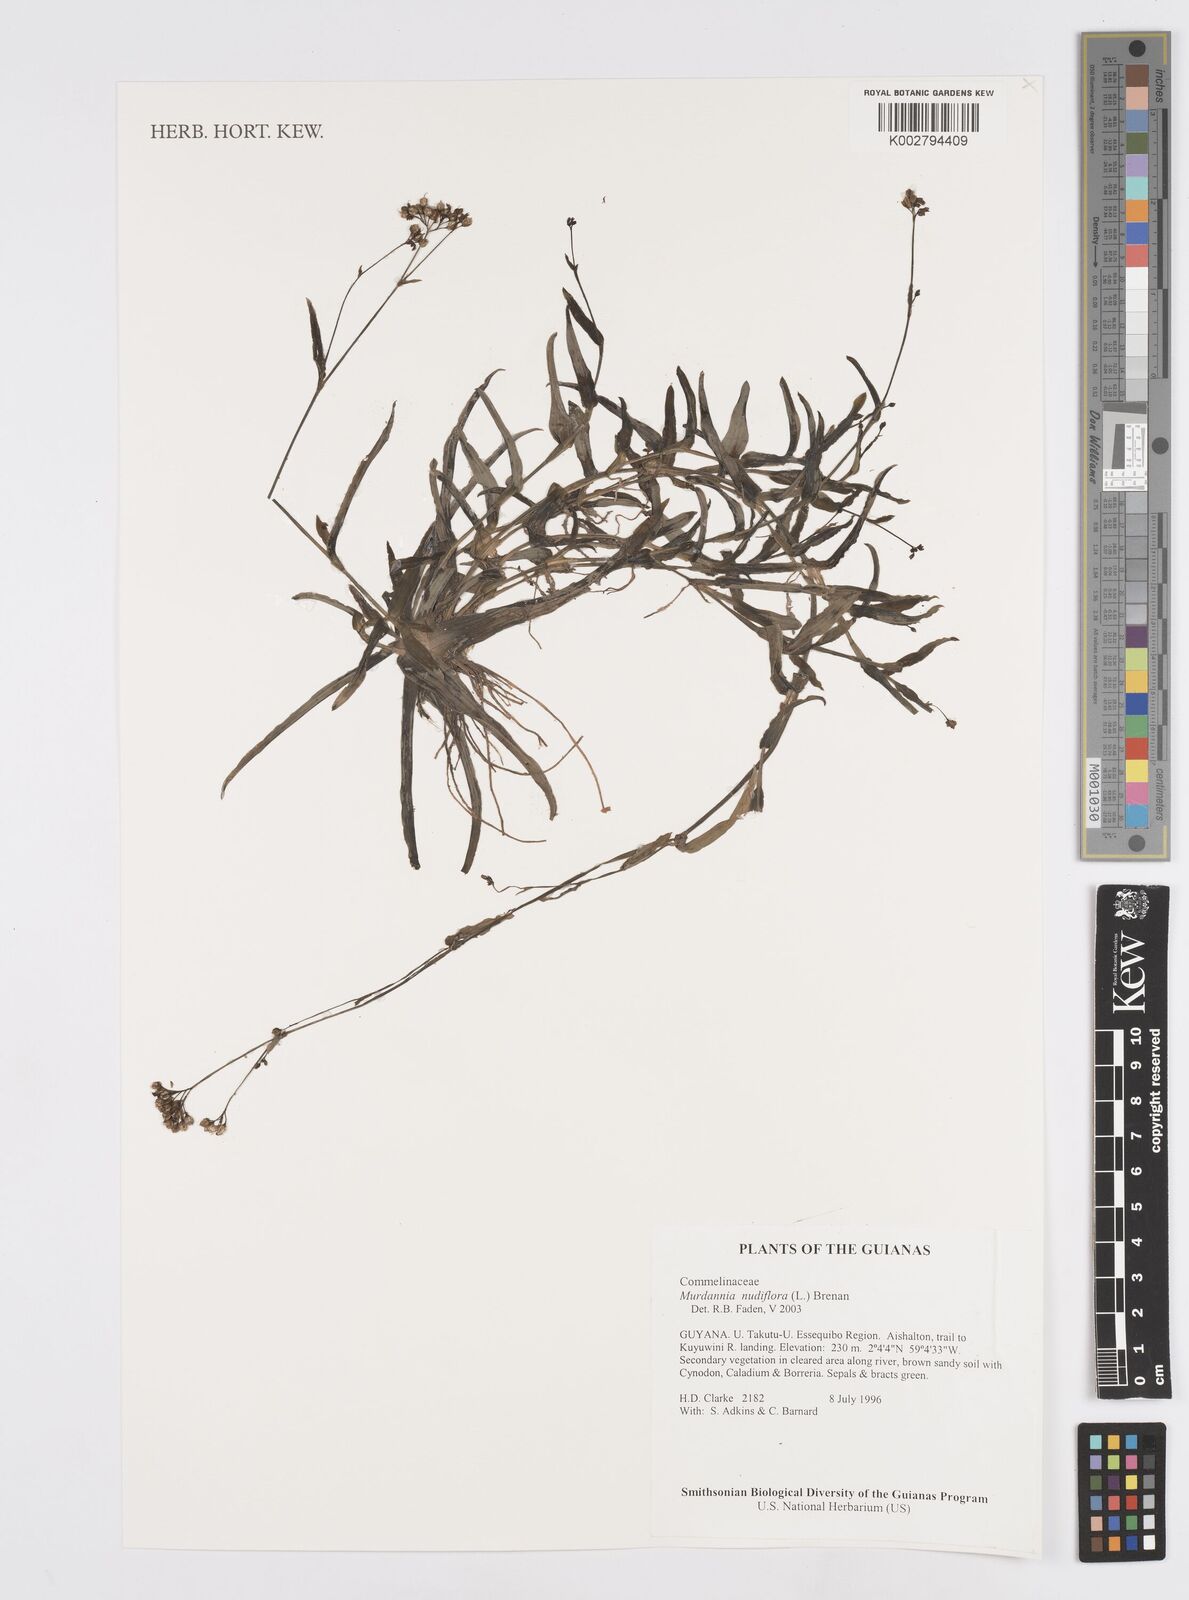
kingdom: Plantae
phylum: Tracheophyta
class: Liliopsida
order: Commelinales
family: Commelinaceae
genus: Murdannia
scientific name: Murdannia nudiflora
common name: Nakedstem dewflower
